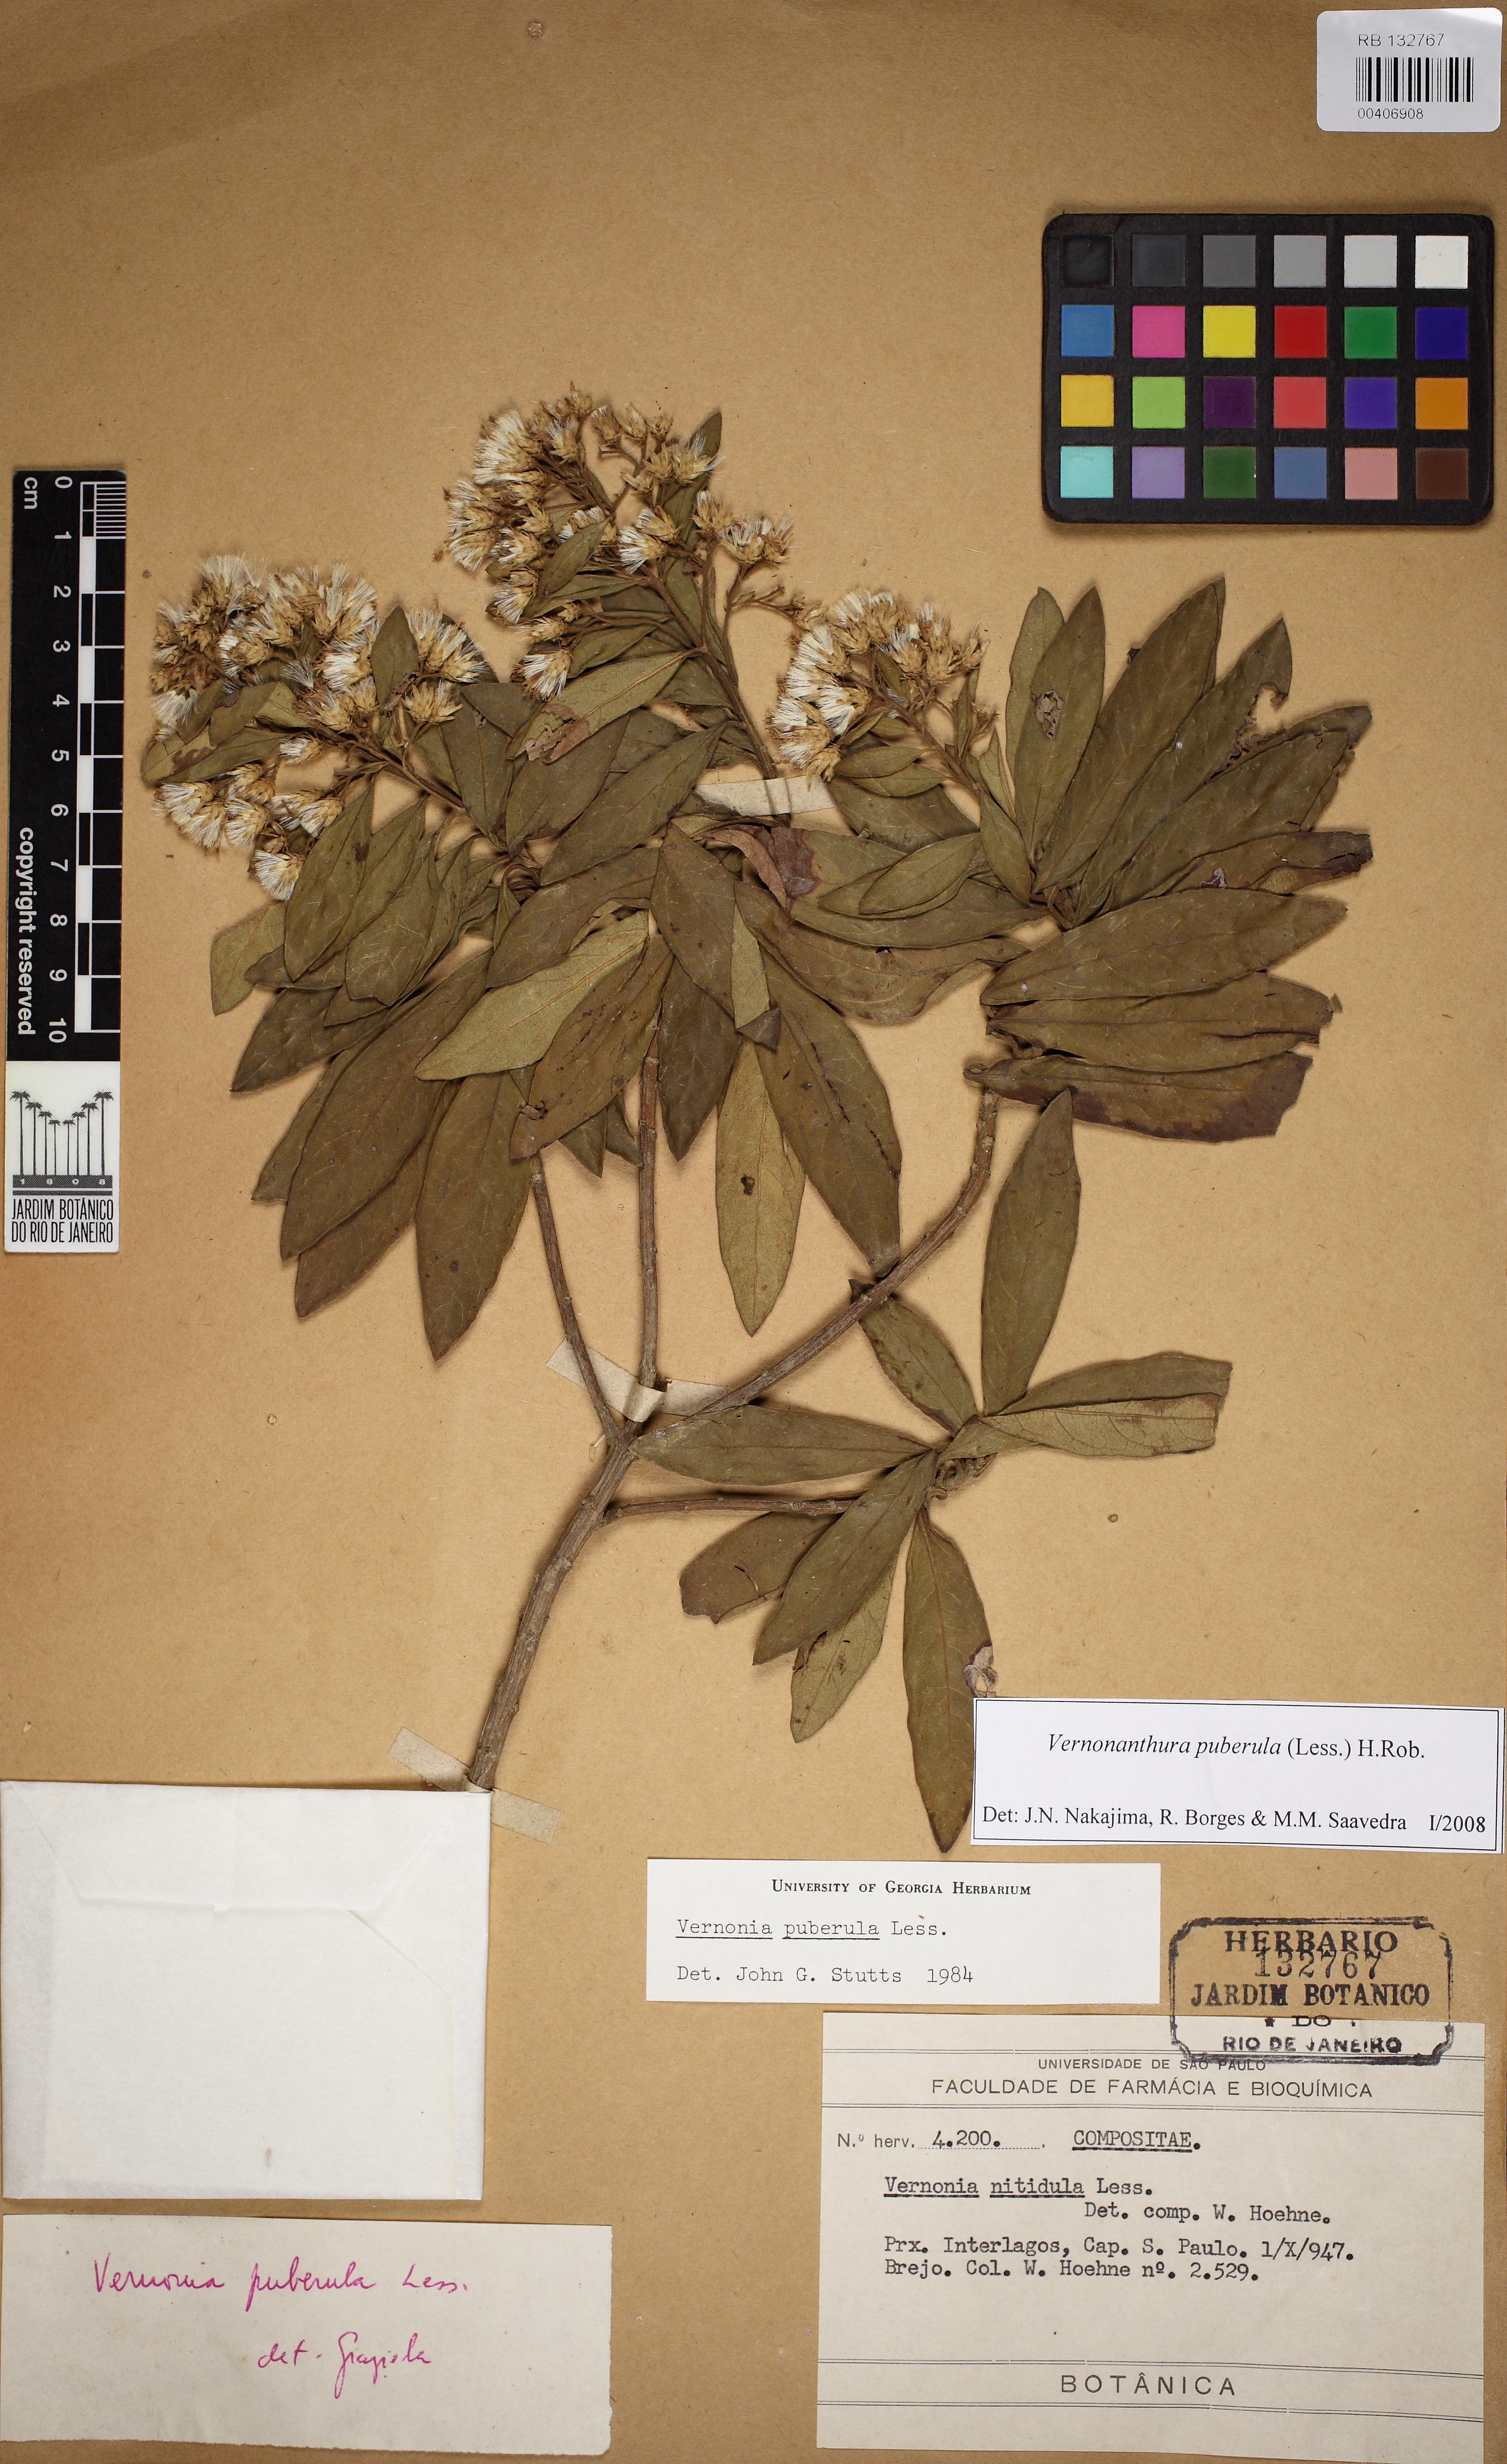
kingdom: Plantae
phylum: Tracheophyta
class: Magnoliopsida
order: Asterales
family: Asteraceae
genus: Vernonanthura
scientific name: Vernonanthura puberula
